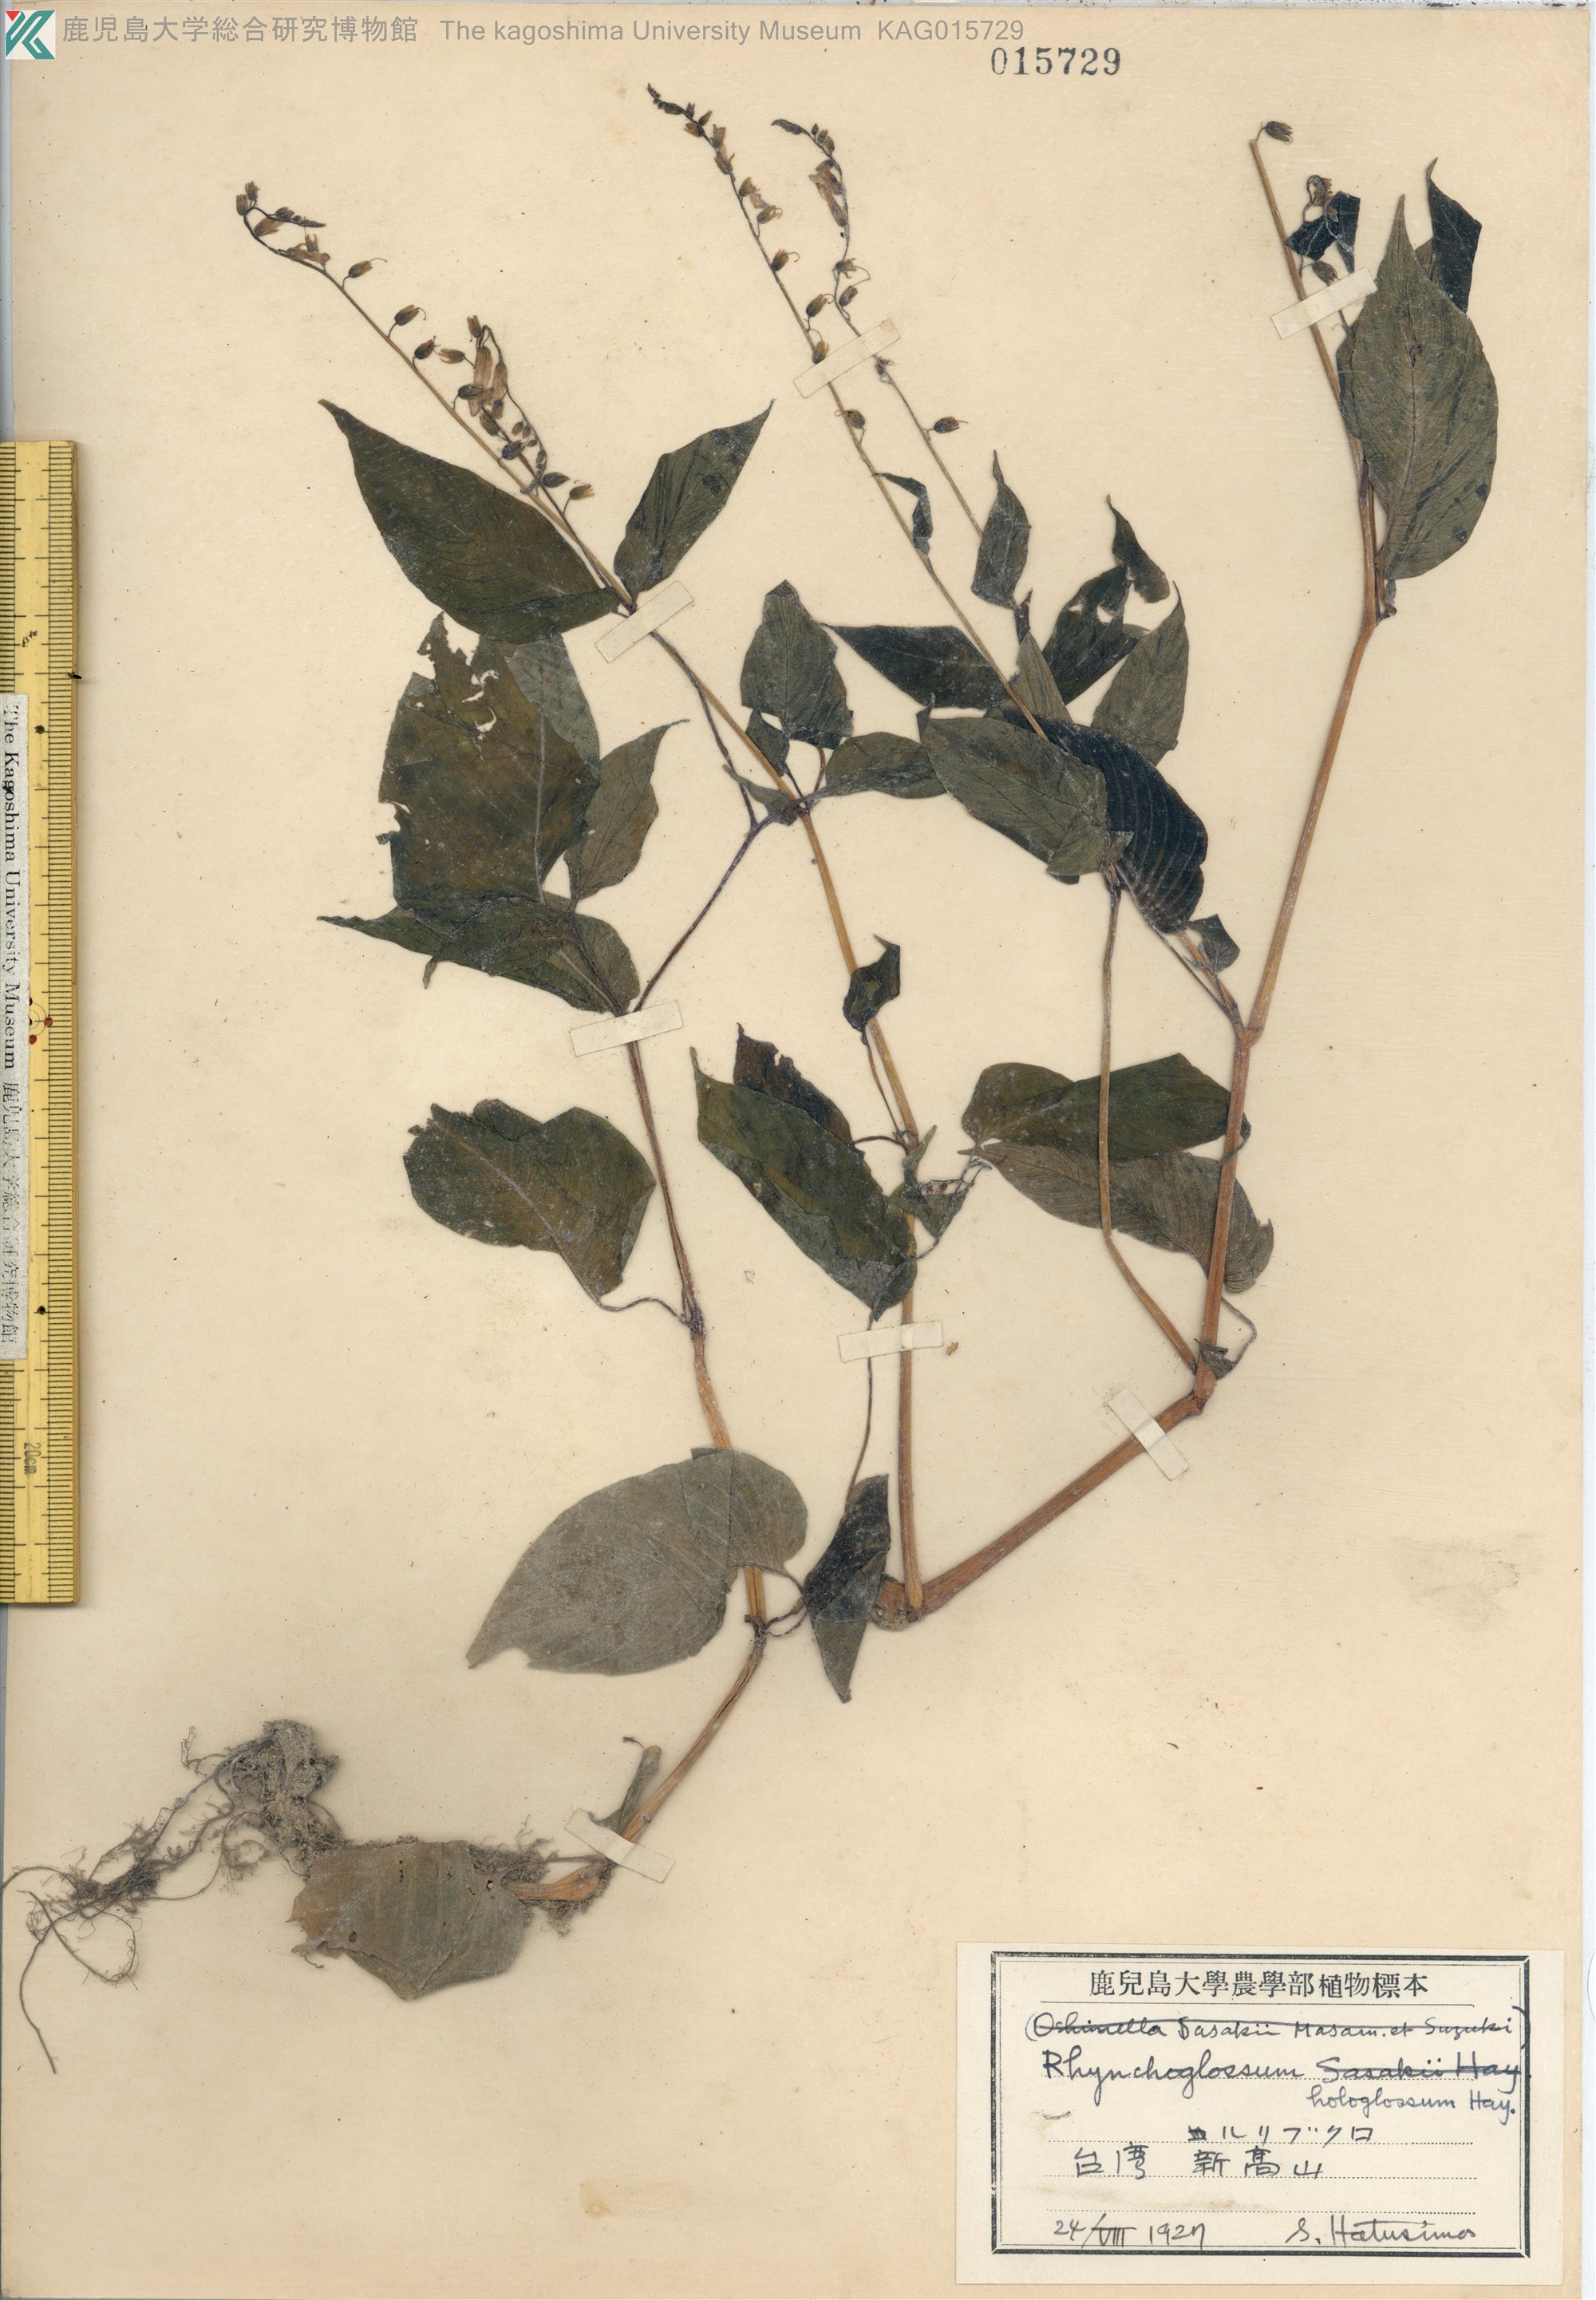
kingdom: Plantae
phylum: Tracheophyta
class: Magnoliopsida
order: Lamiales
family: Gesneriaceae
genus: Rhynchoglossum
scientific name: Rhynchoglossum obliquum
